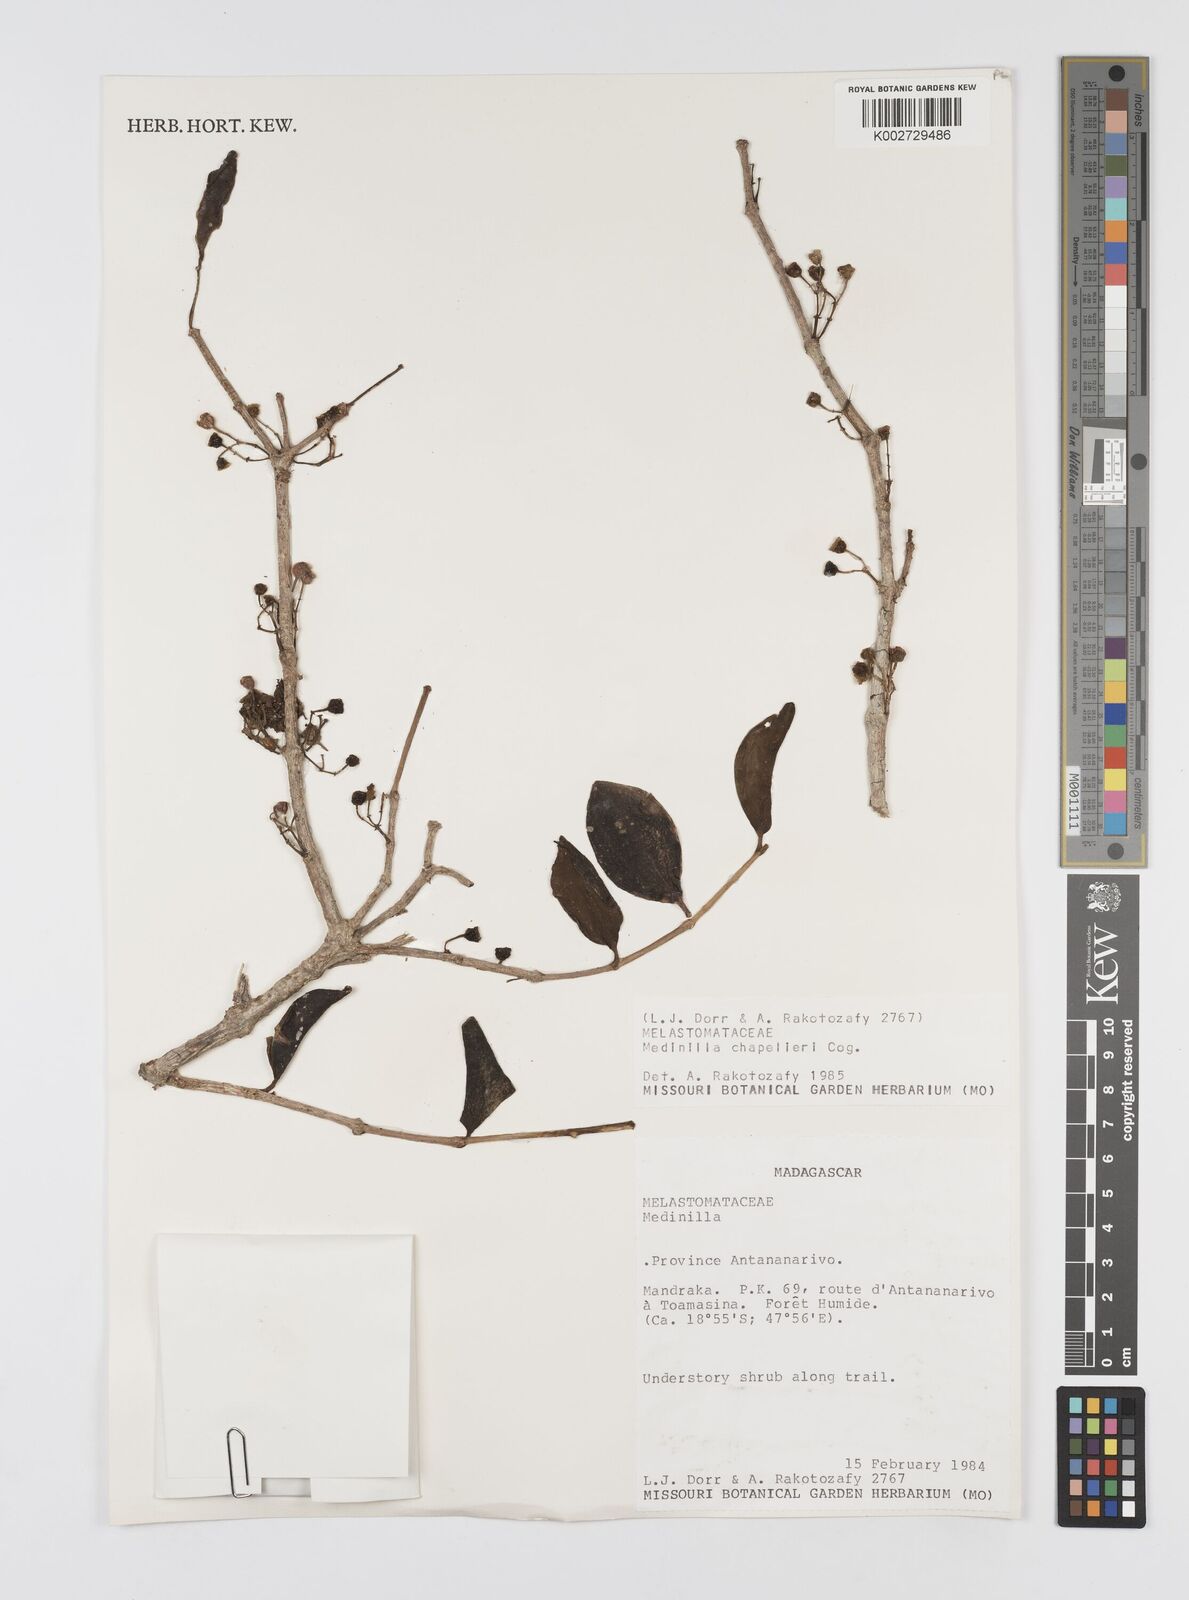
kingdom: Plantae
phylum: Tracheophyta
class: Magnoliopsida
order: Myrtales
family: Melastomataceae
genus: Medinilla
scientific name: Medinilla
